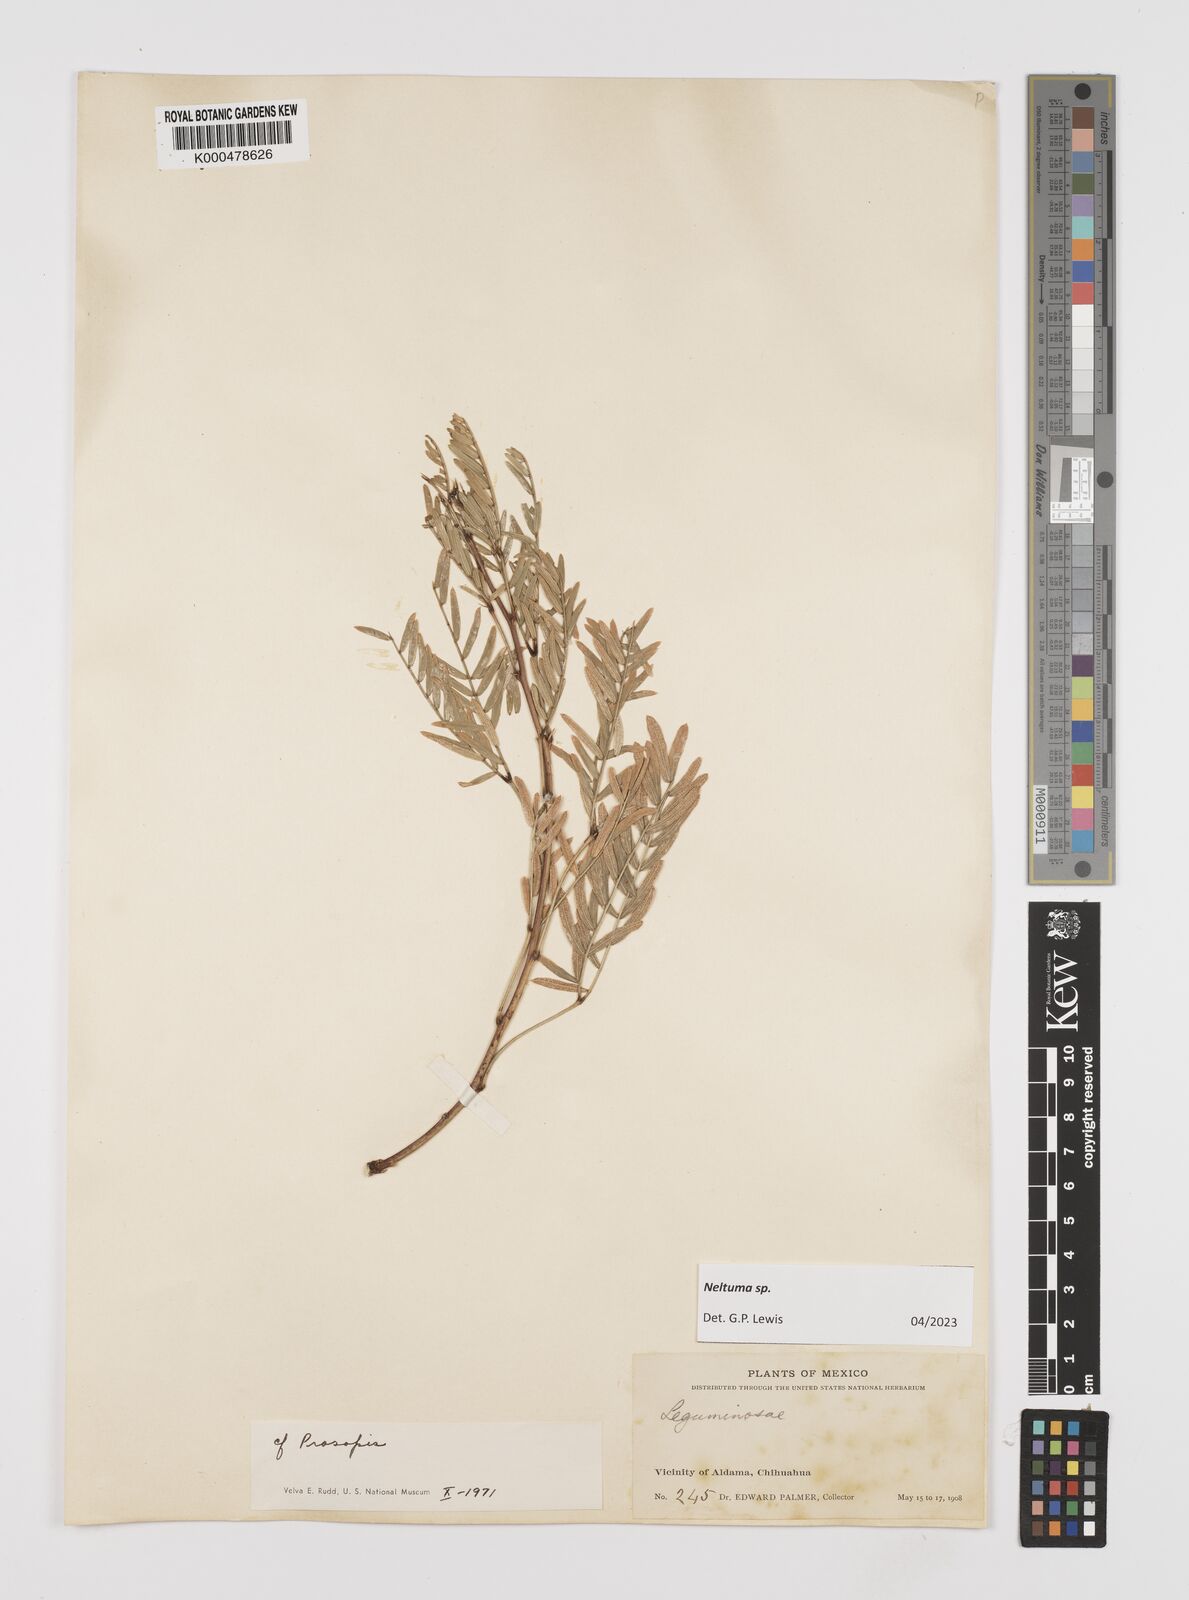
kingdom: Plantae
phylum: Tracheophyta
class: Magnoliopsida
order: Fabales
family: Fabaceae
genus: Prosopis
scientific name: Prosopis
